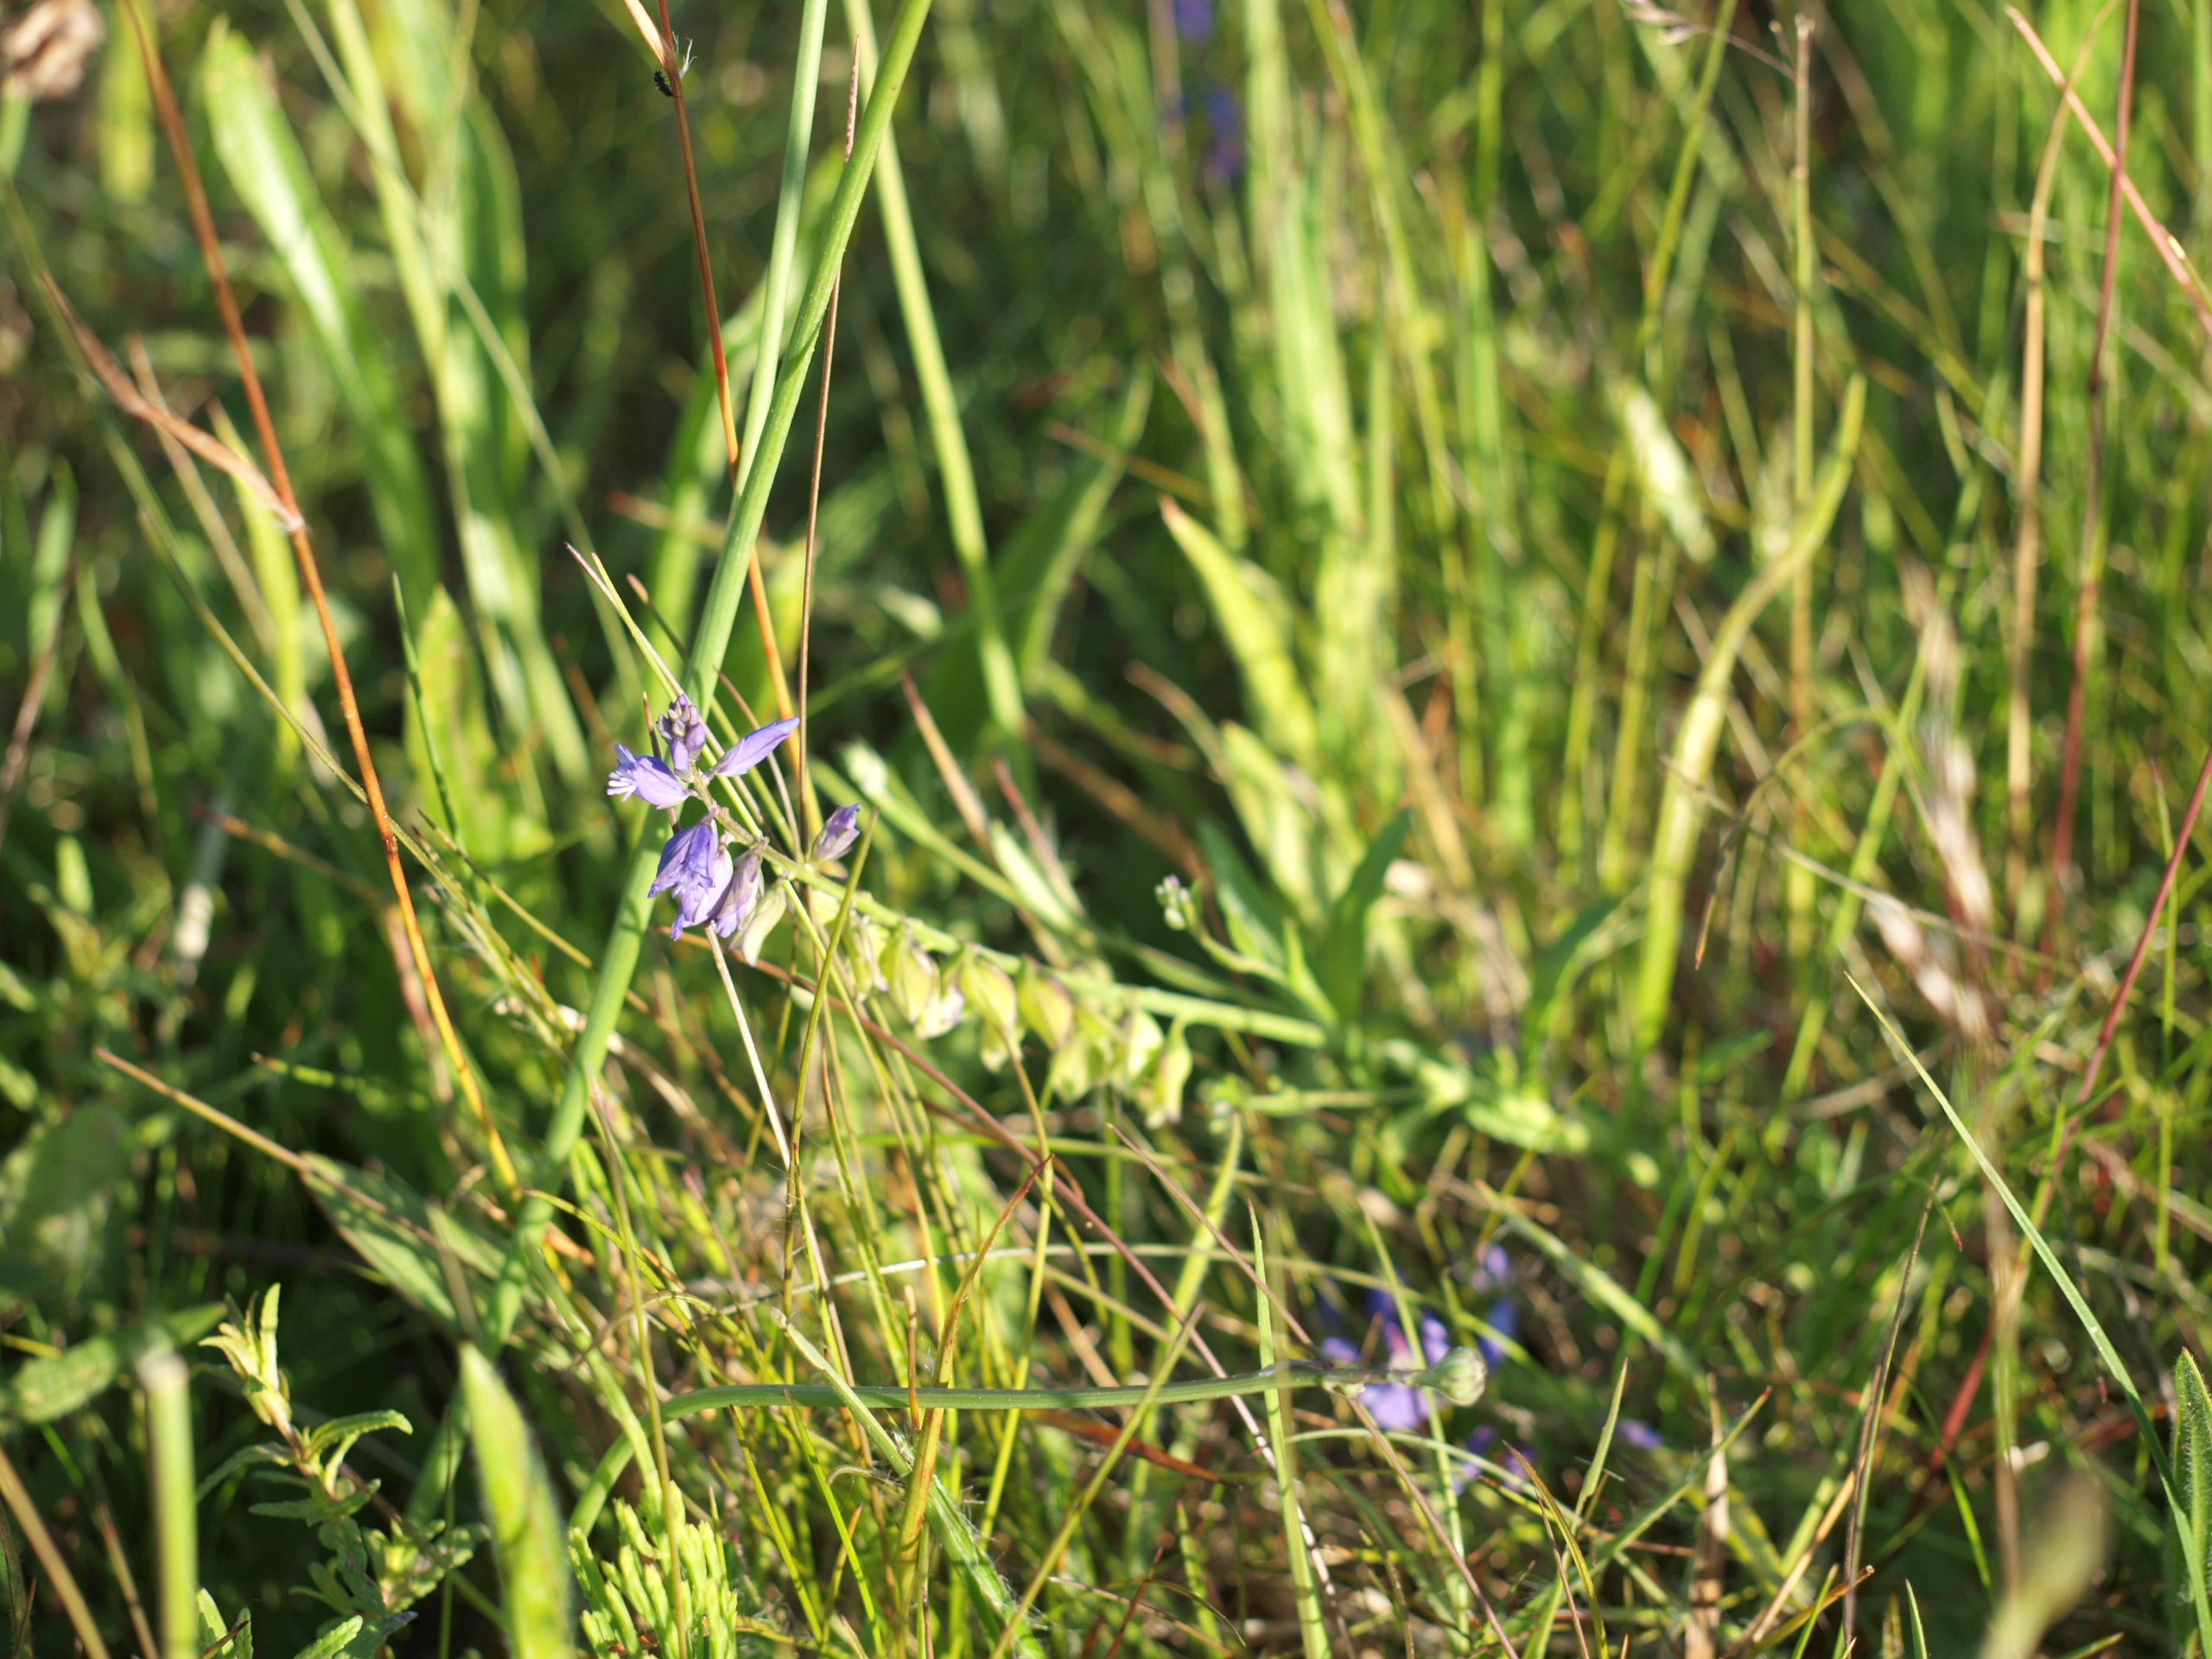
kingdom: Plantae
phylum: Tracheophyta
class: Magnoliopsida
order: Fabales
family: Polygalaceae
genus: Polygala
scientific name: Polygala vulgaris
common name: Almindelig mælkeurt
